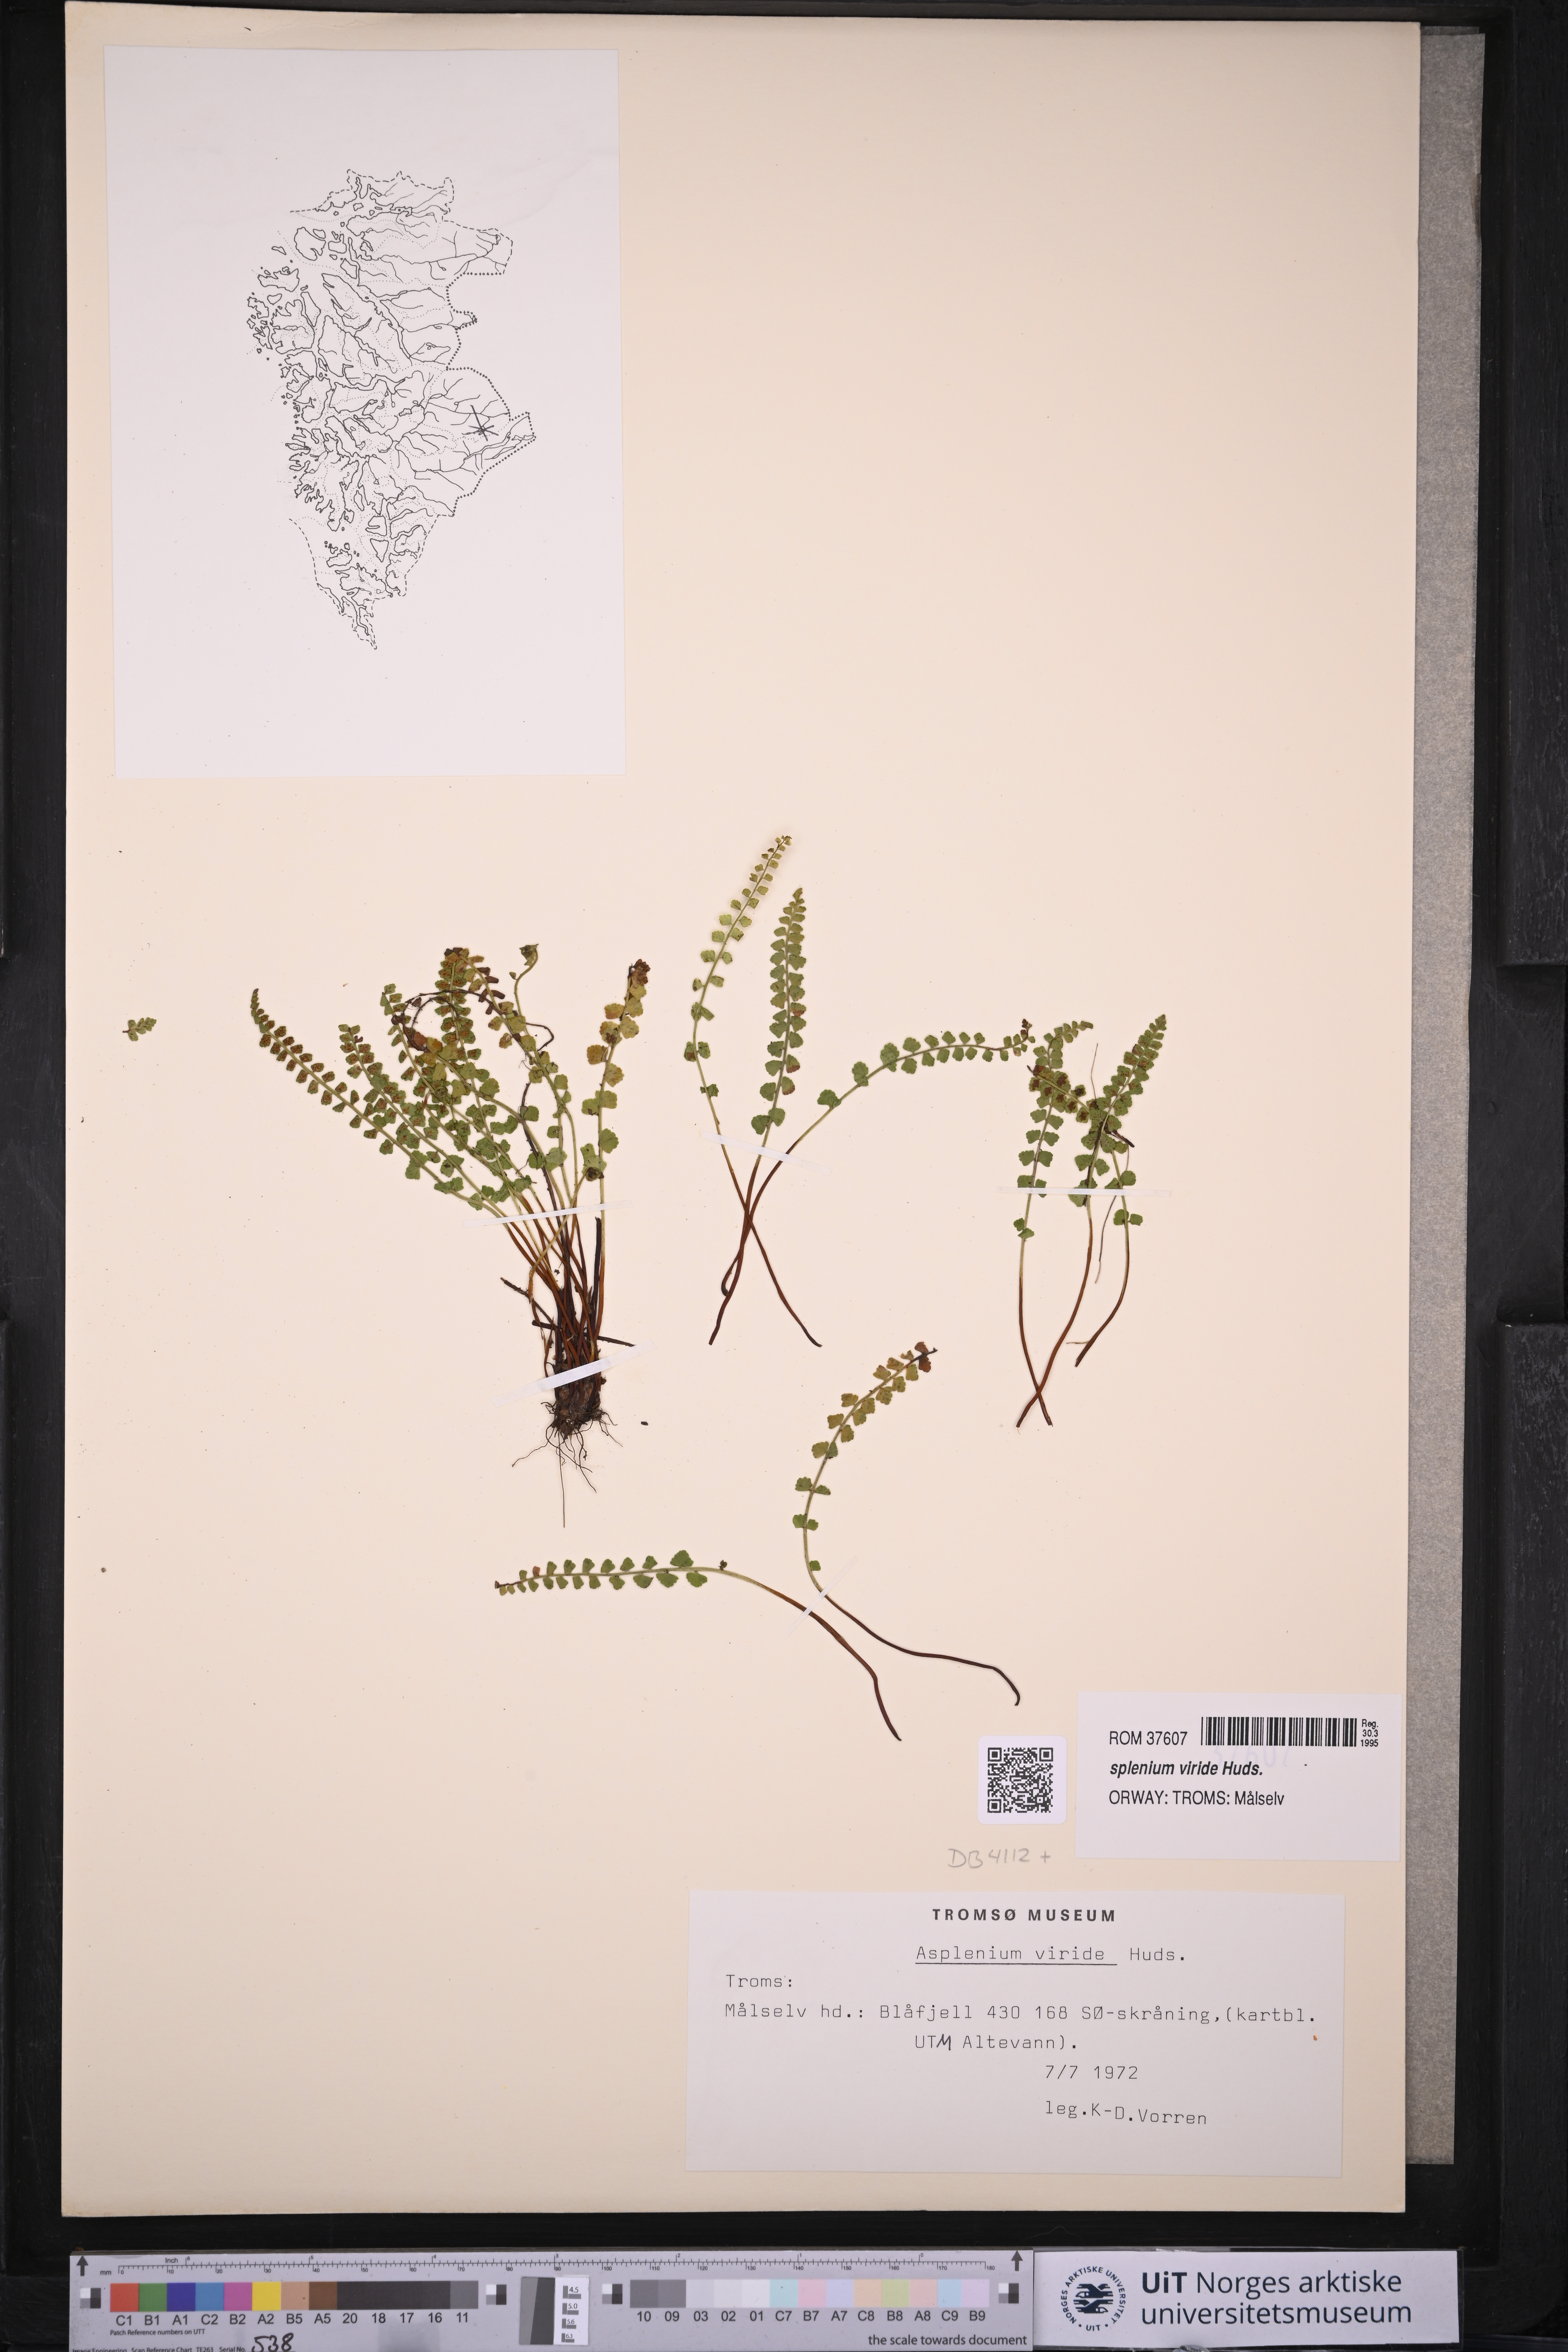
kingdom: Plantae
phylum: Tracheophyta
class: Polypodiopsida
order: Polypodiales
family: Aspleniaceae
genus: Asplenium
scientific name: Asplenium viride
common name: Green spleenwort
